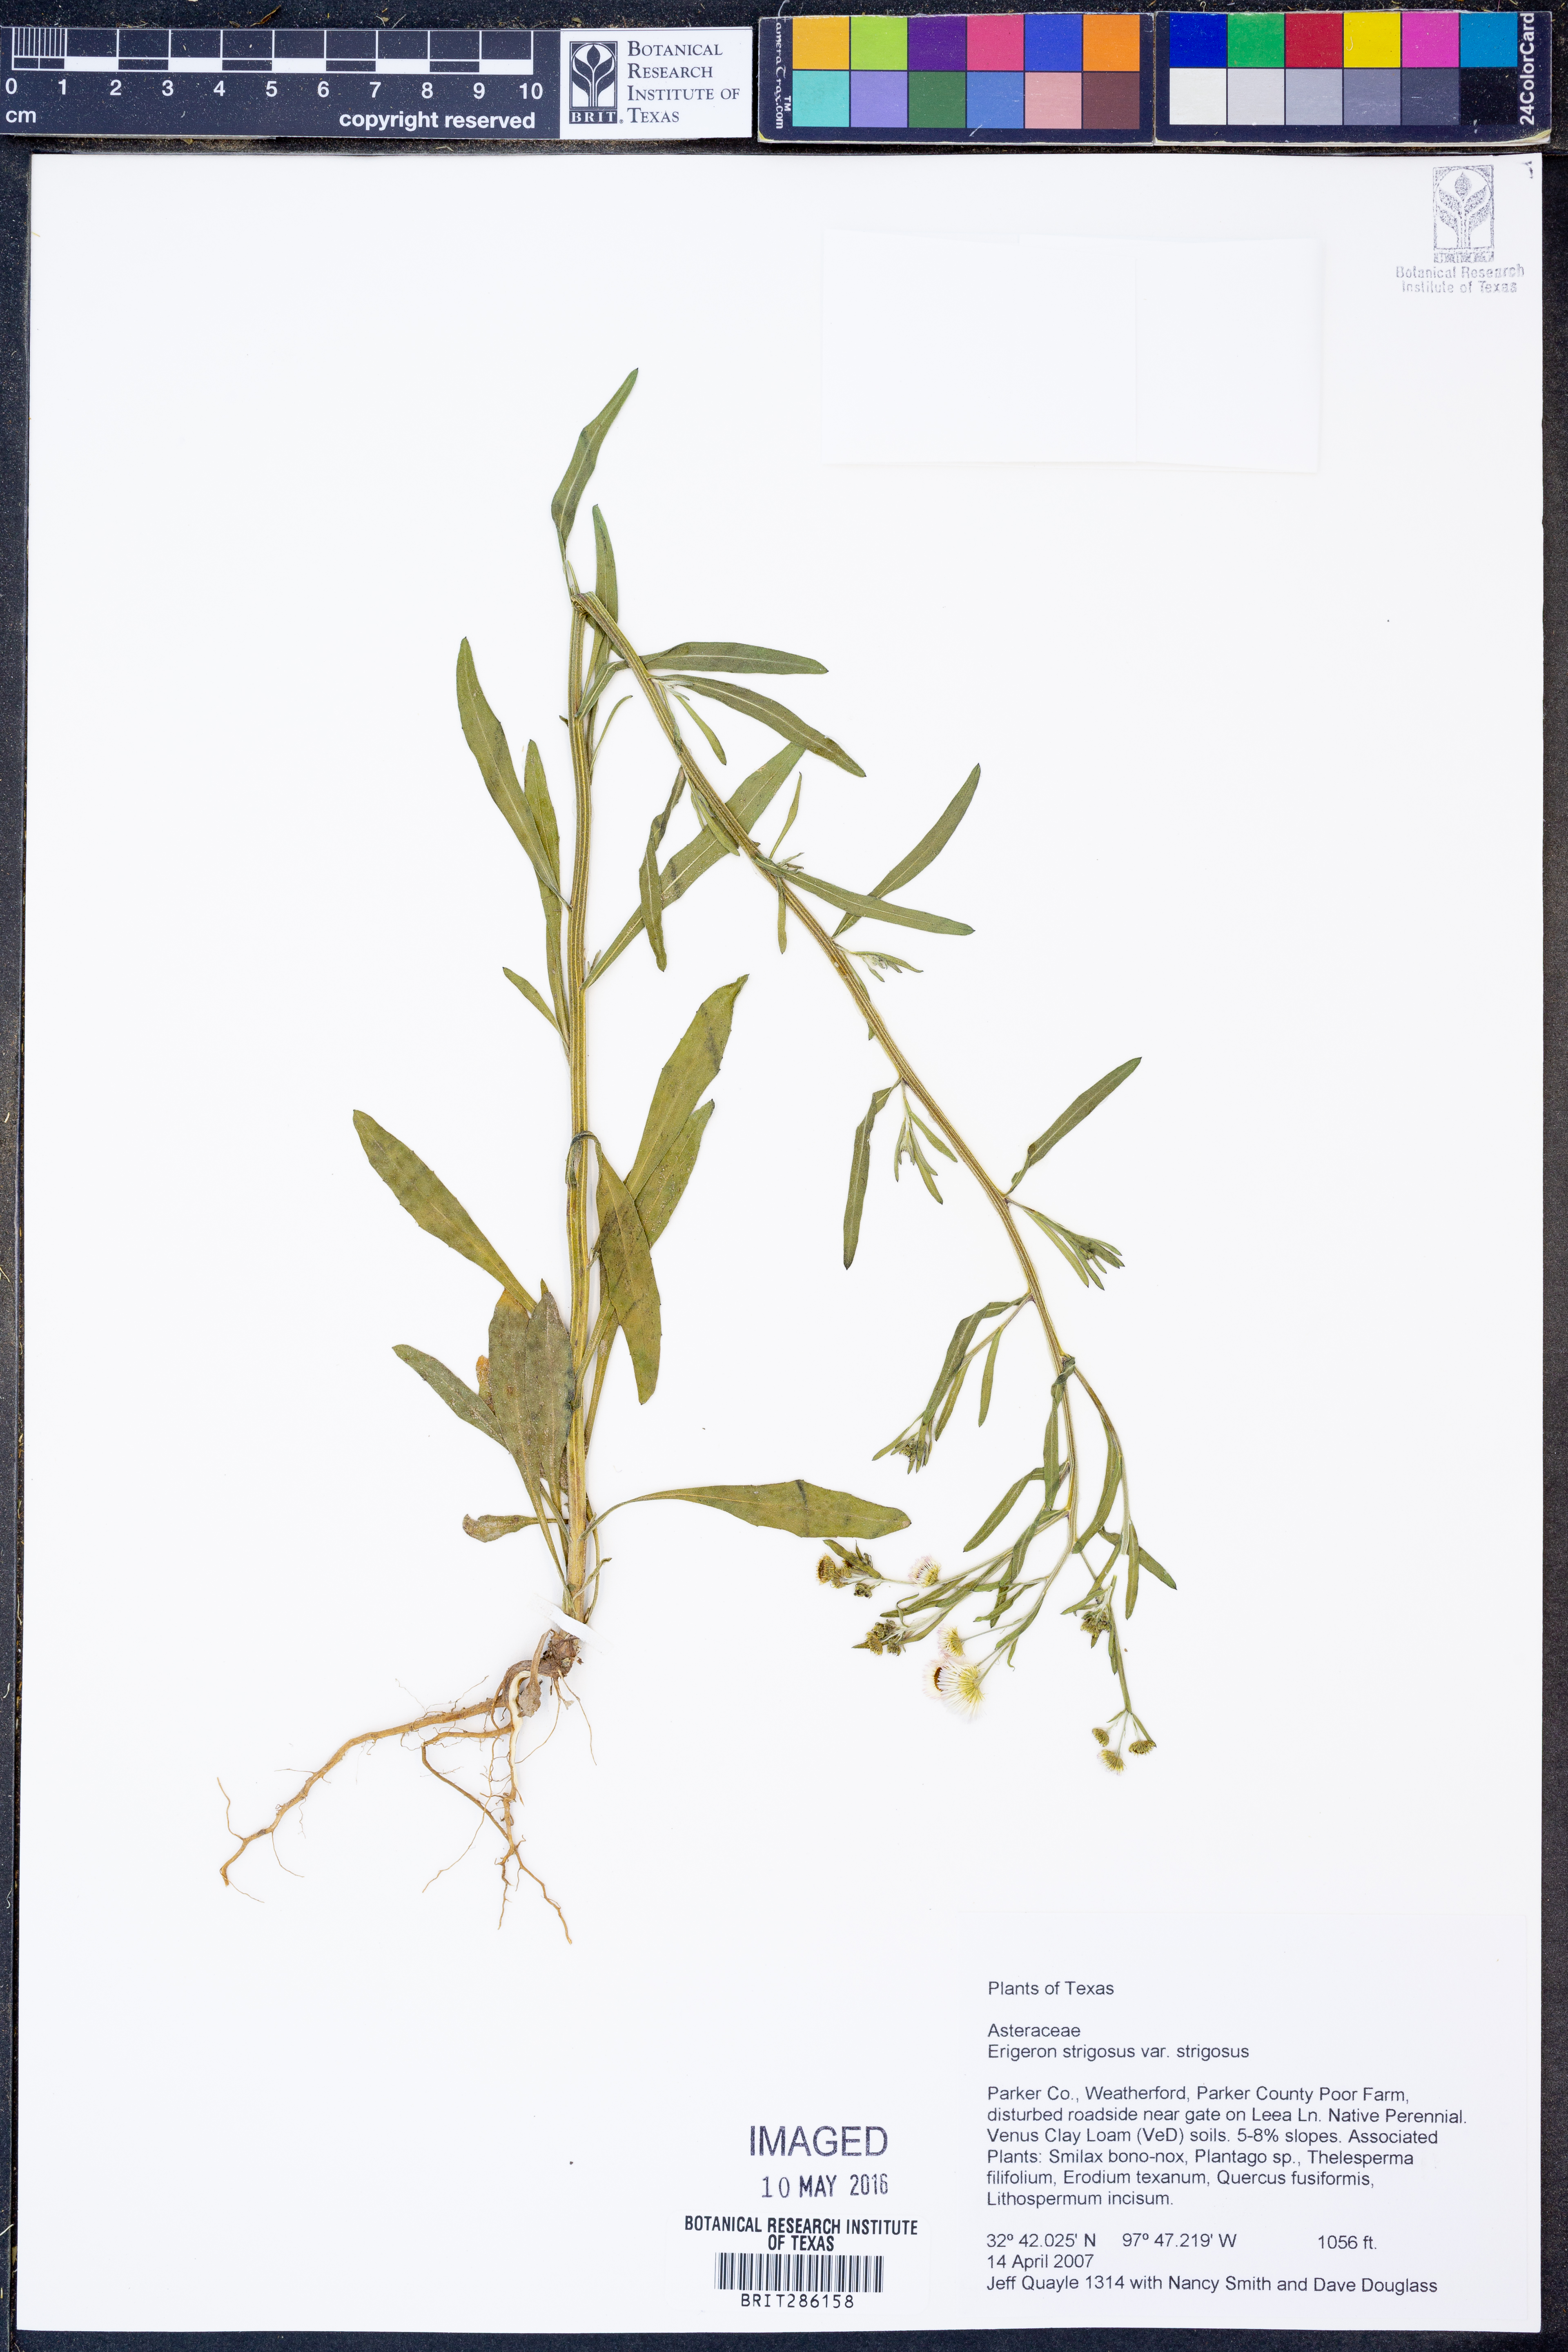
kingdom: Plantae
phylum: Tracheophyta
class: Magnoliopsida
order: Asterales
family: Asteraceae
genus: Erigeron
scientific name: Erigeron strigosus
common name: Common eastern fleabane
